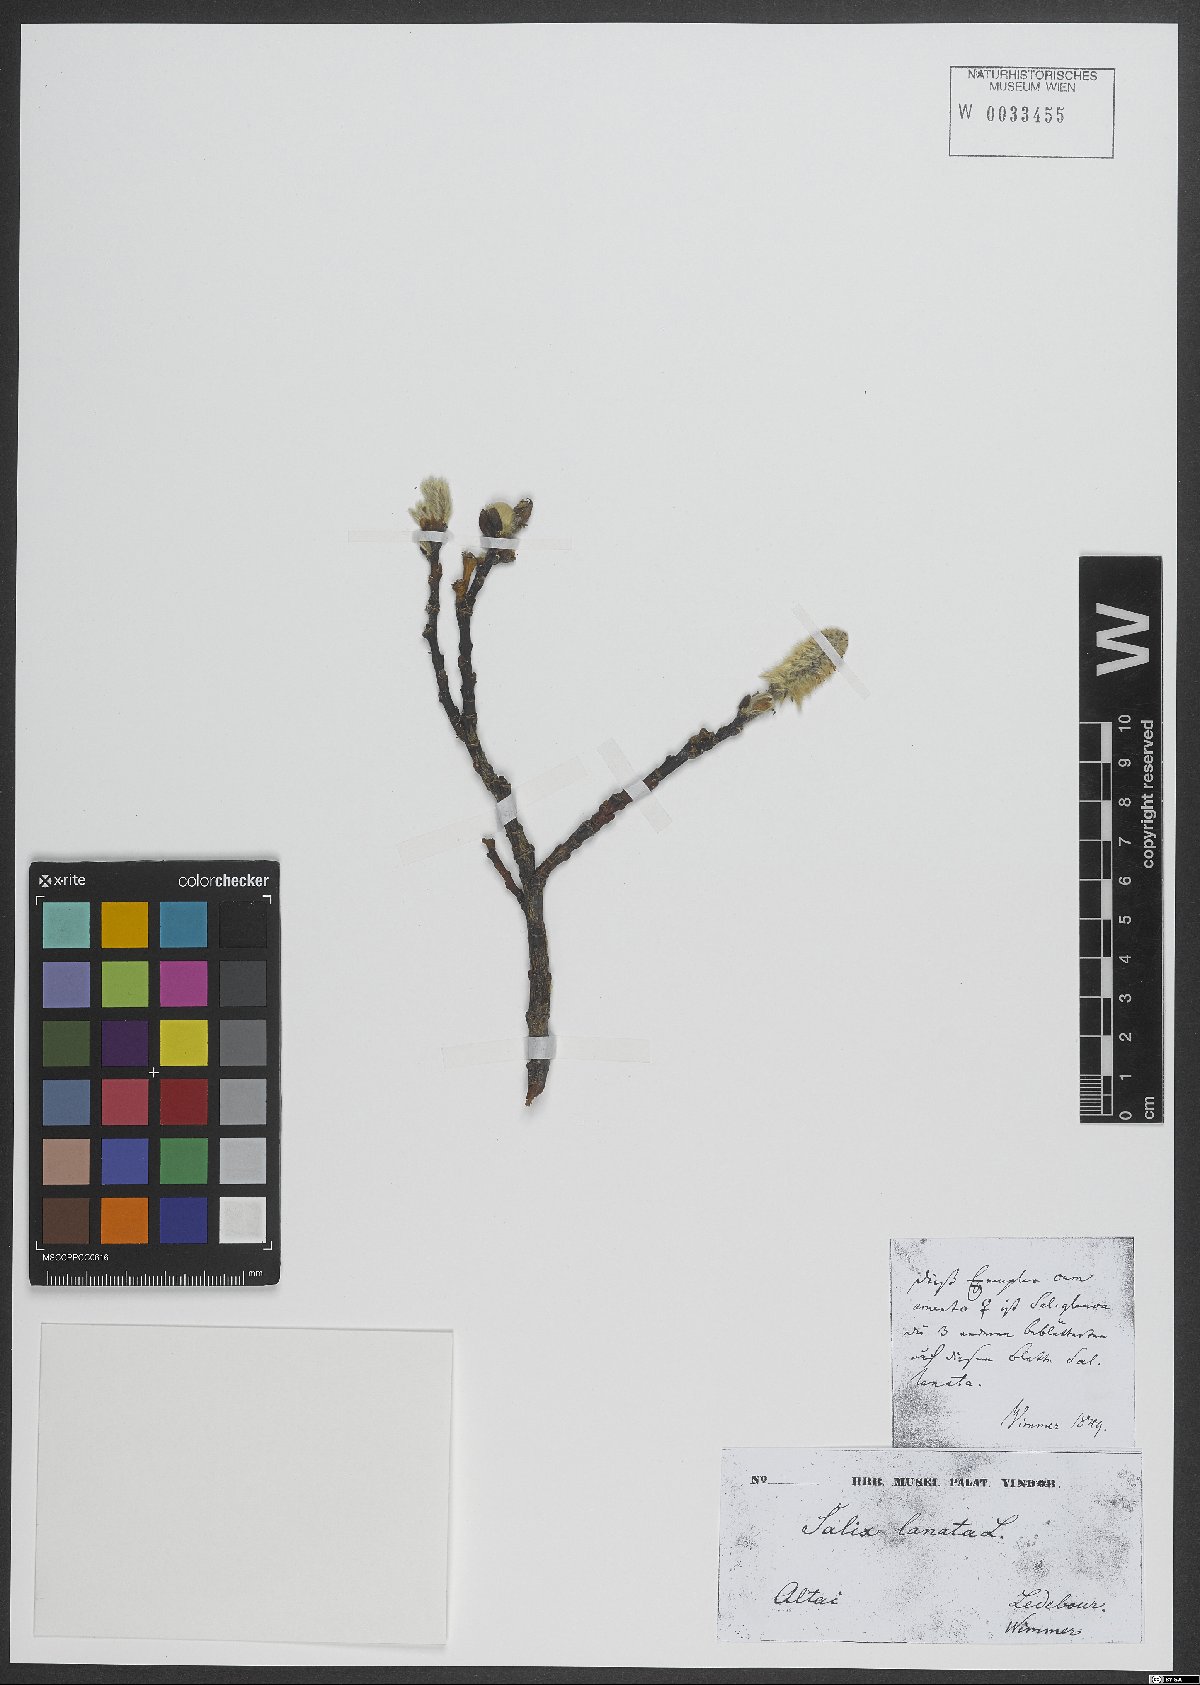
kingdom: Plantae
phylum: Tracheophyta
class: Magnoliopsida
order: Malpighiales
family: Salicaceae
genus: Salix
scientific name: Salix lanata
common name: Woolly willow
